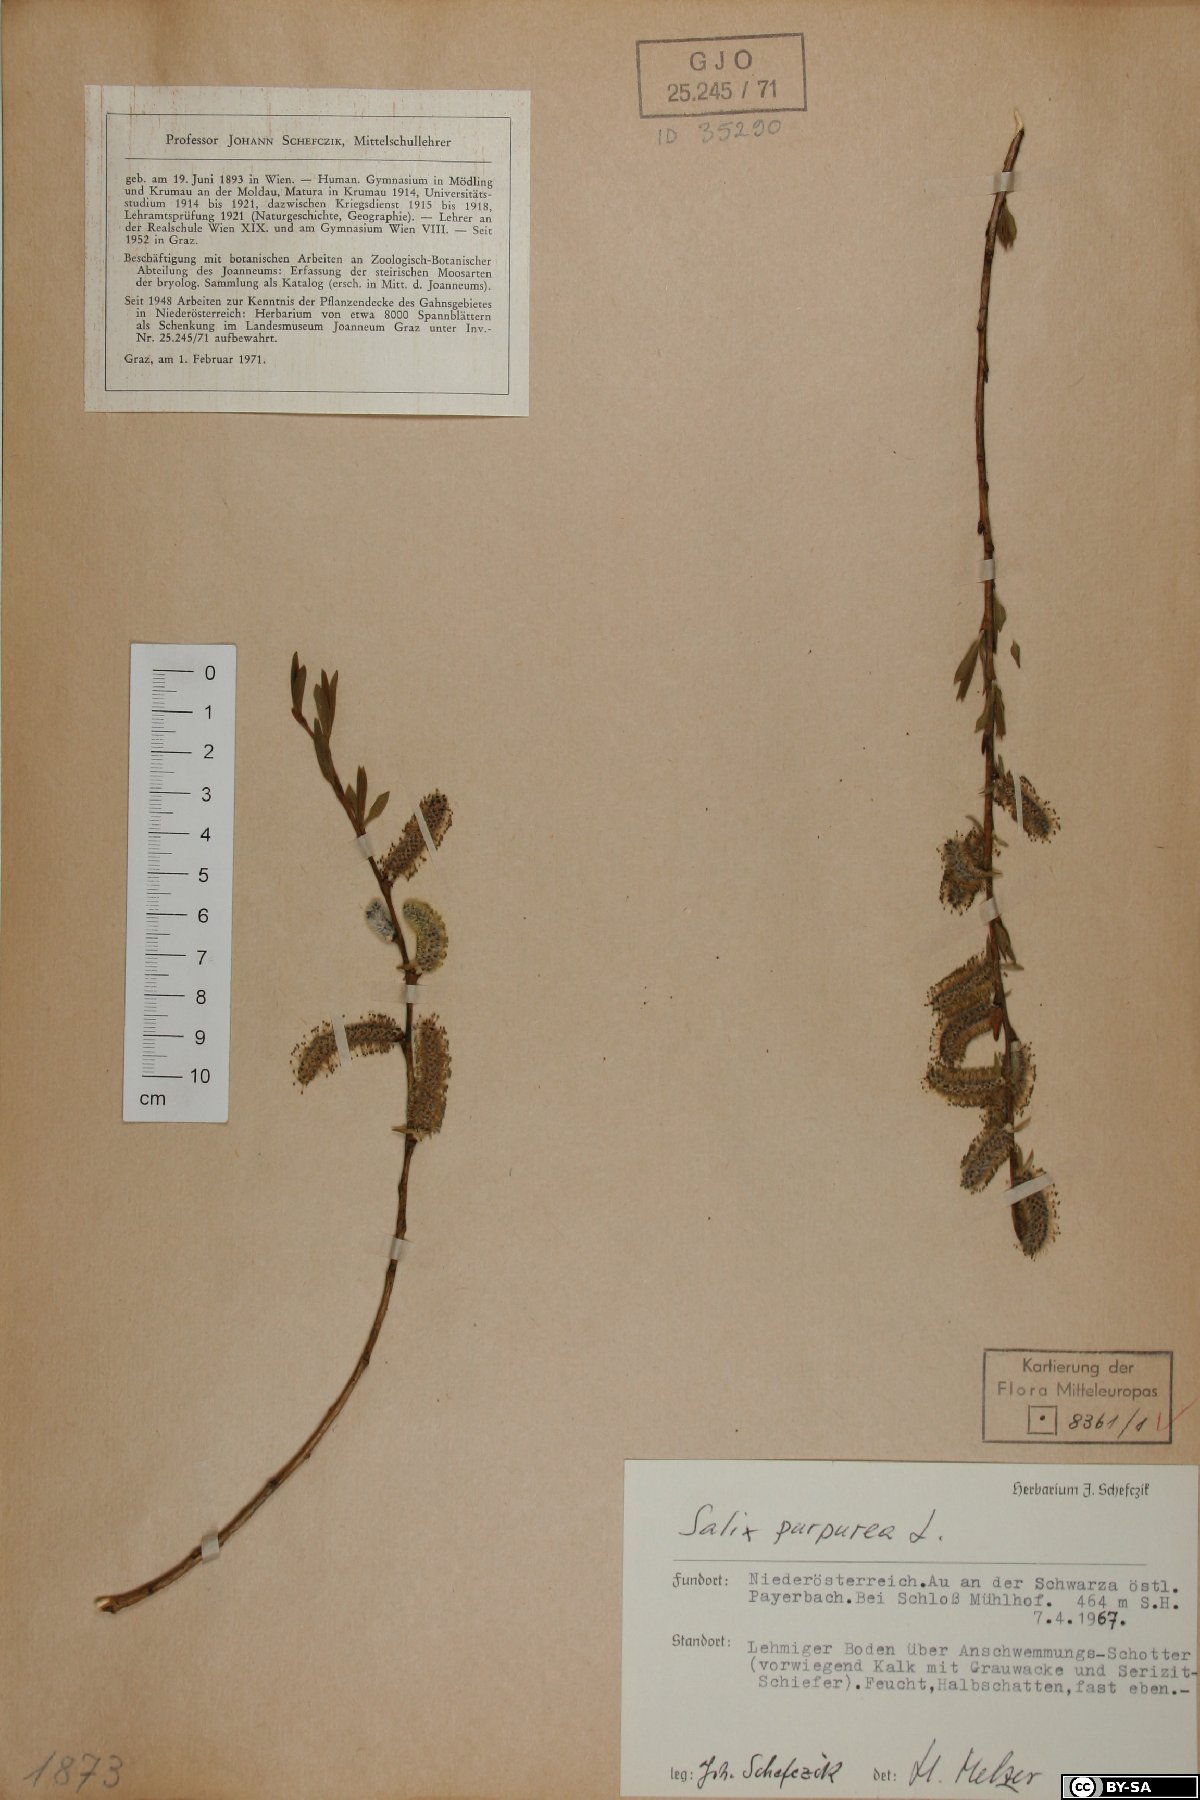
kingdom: Plantae
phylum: Tracheophyta
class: Magnoliopsida
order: Malpighiales
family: Salicaceae
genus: Salix
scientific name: Salix purpurea
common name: Purple willow
